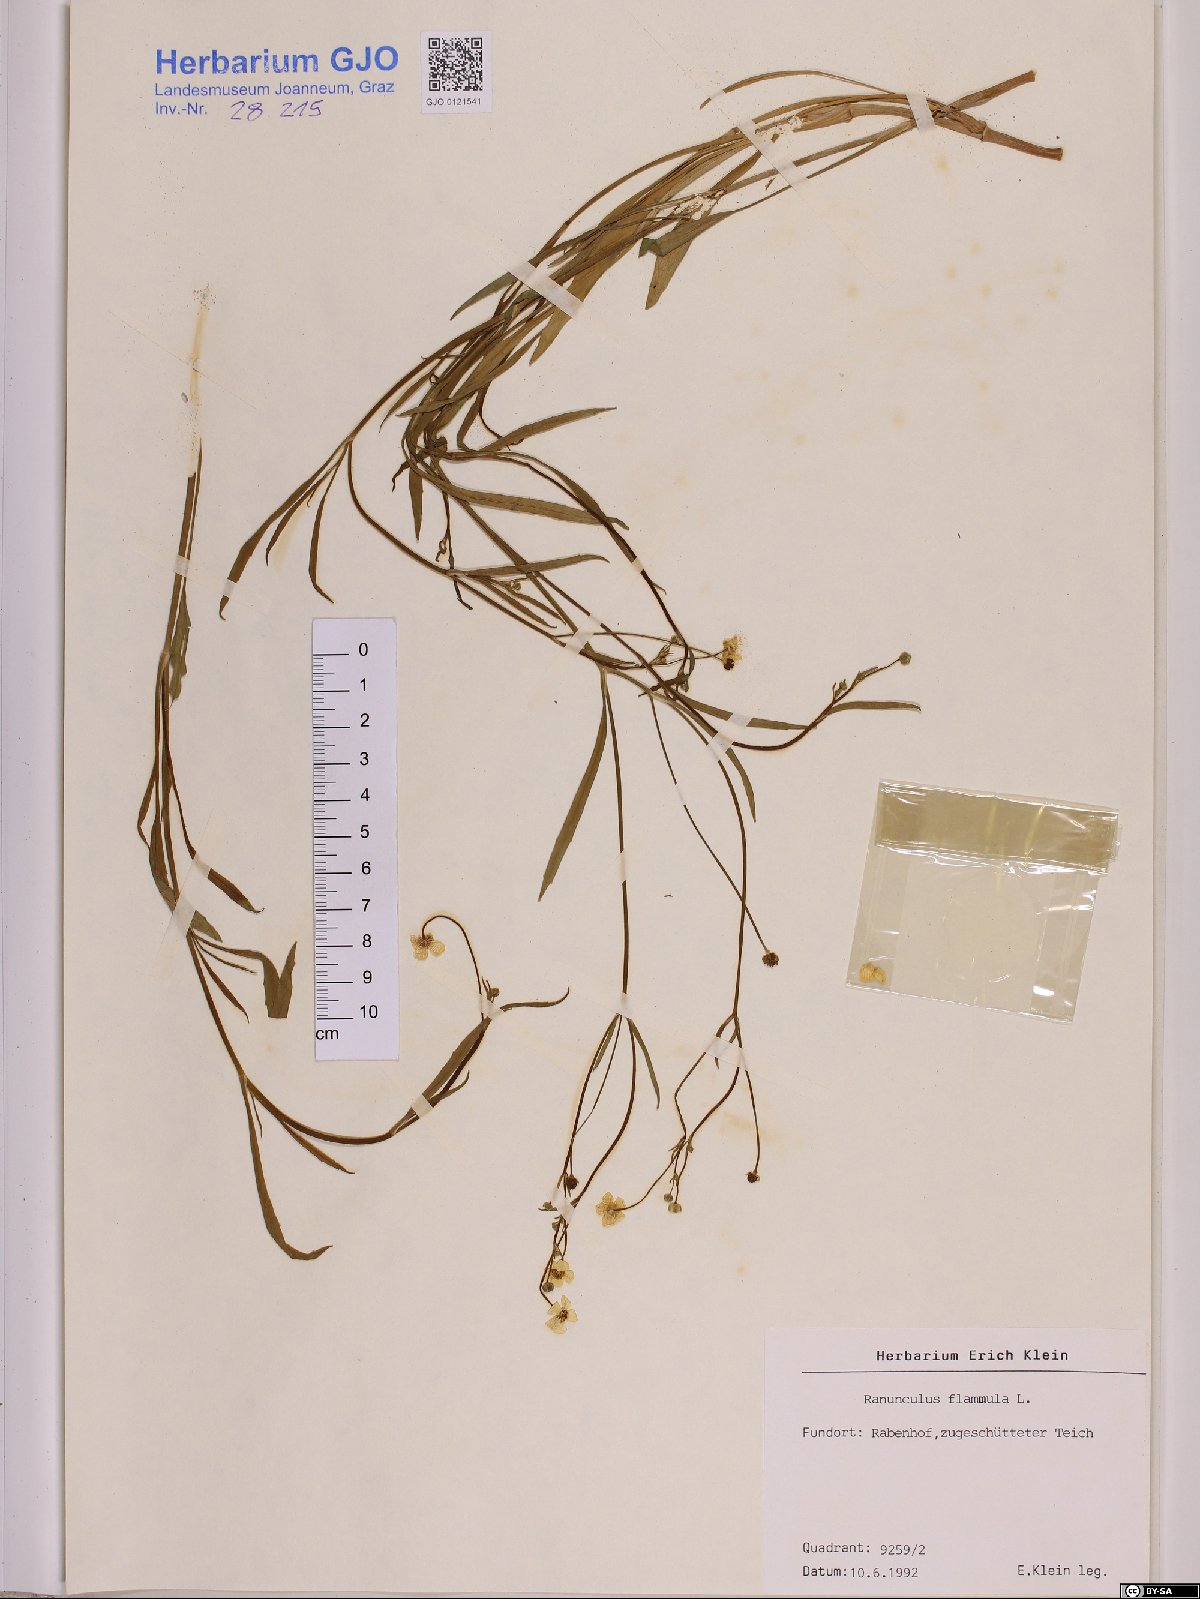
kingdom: Plantae
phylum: Tracheophyta
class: Magnoliopsida
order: Ranunculales
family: Ranunculaceae
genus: Ranunculus
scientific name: Ranunculus flammula
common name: Lesser spearwort
